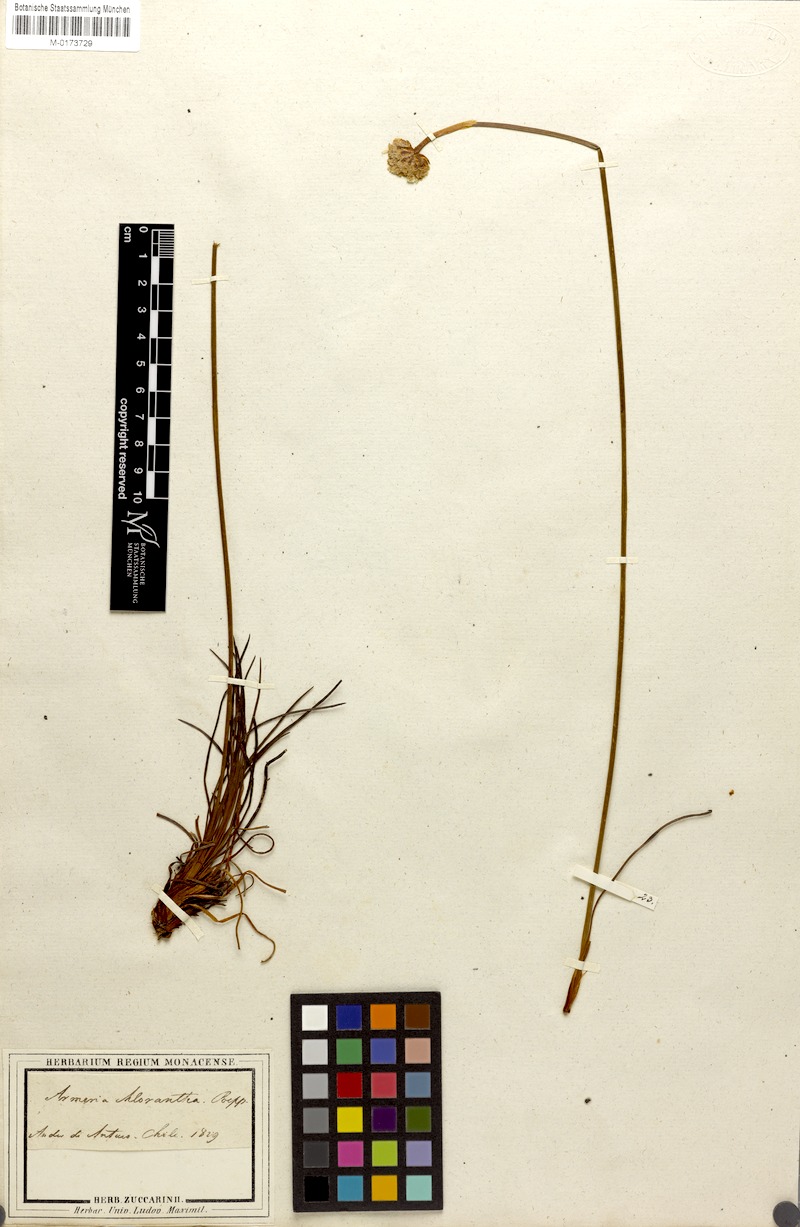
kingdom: Plantae
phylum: Tracheophyta
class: Magnoliopsida
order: Caryophyllales
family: Plumbaginaceae
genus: Armeria
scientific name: Armeria curvifolia
